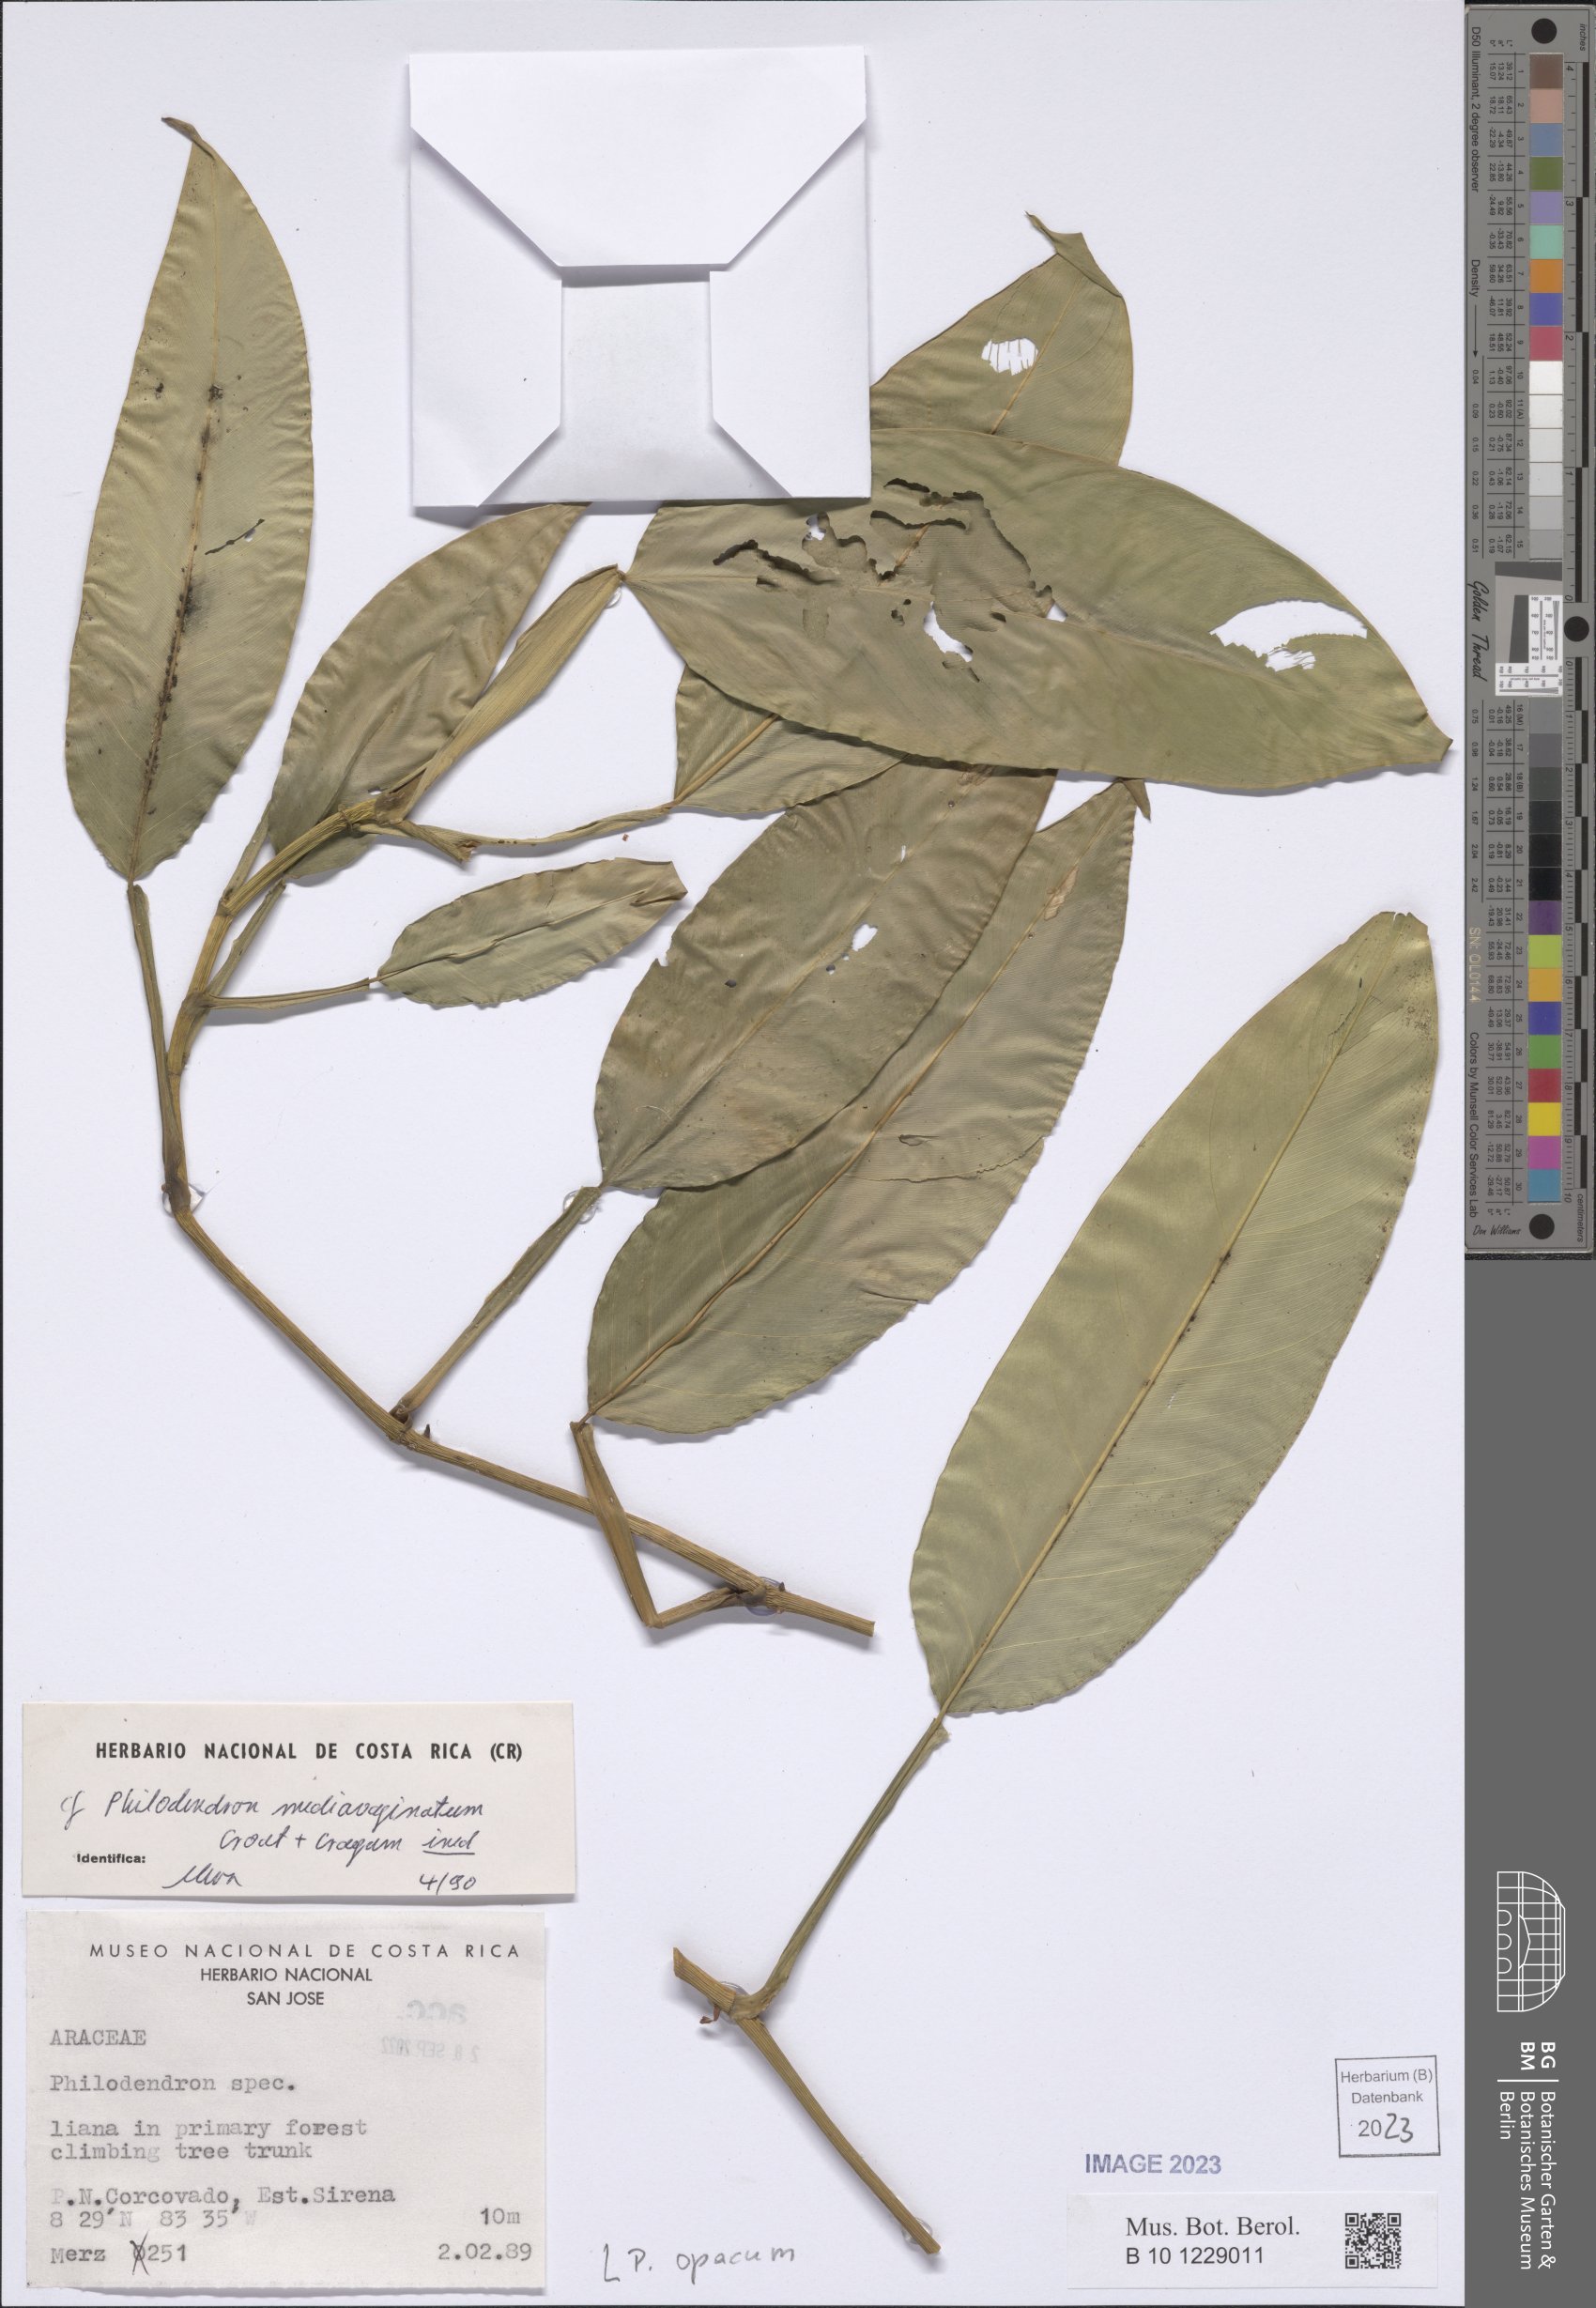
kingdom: Plantae
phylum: Tracheophyta
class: Liliopsida
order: Alismatales
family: Araceae
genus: Philodendron
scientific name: Philodendron opacum
